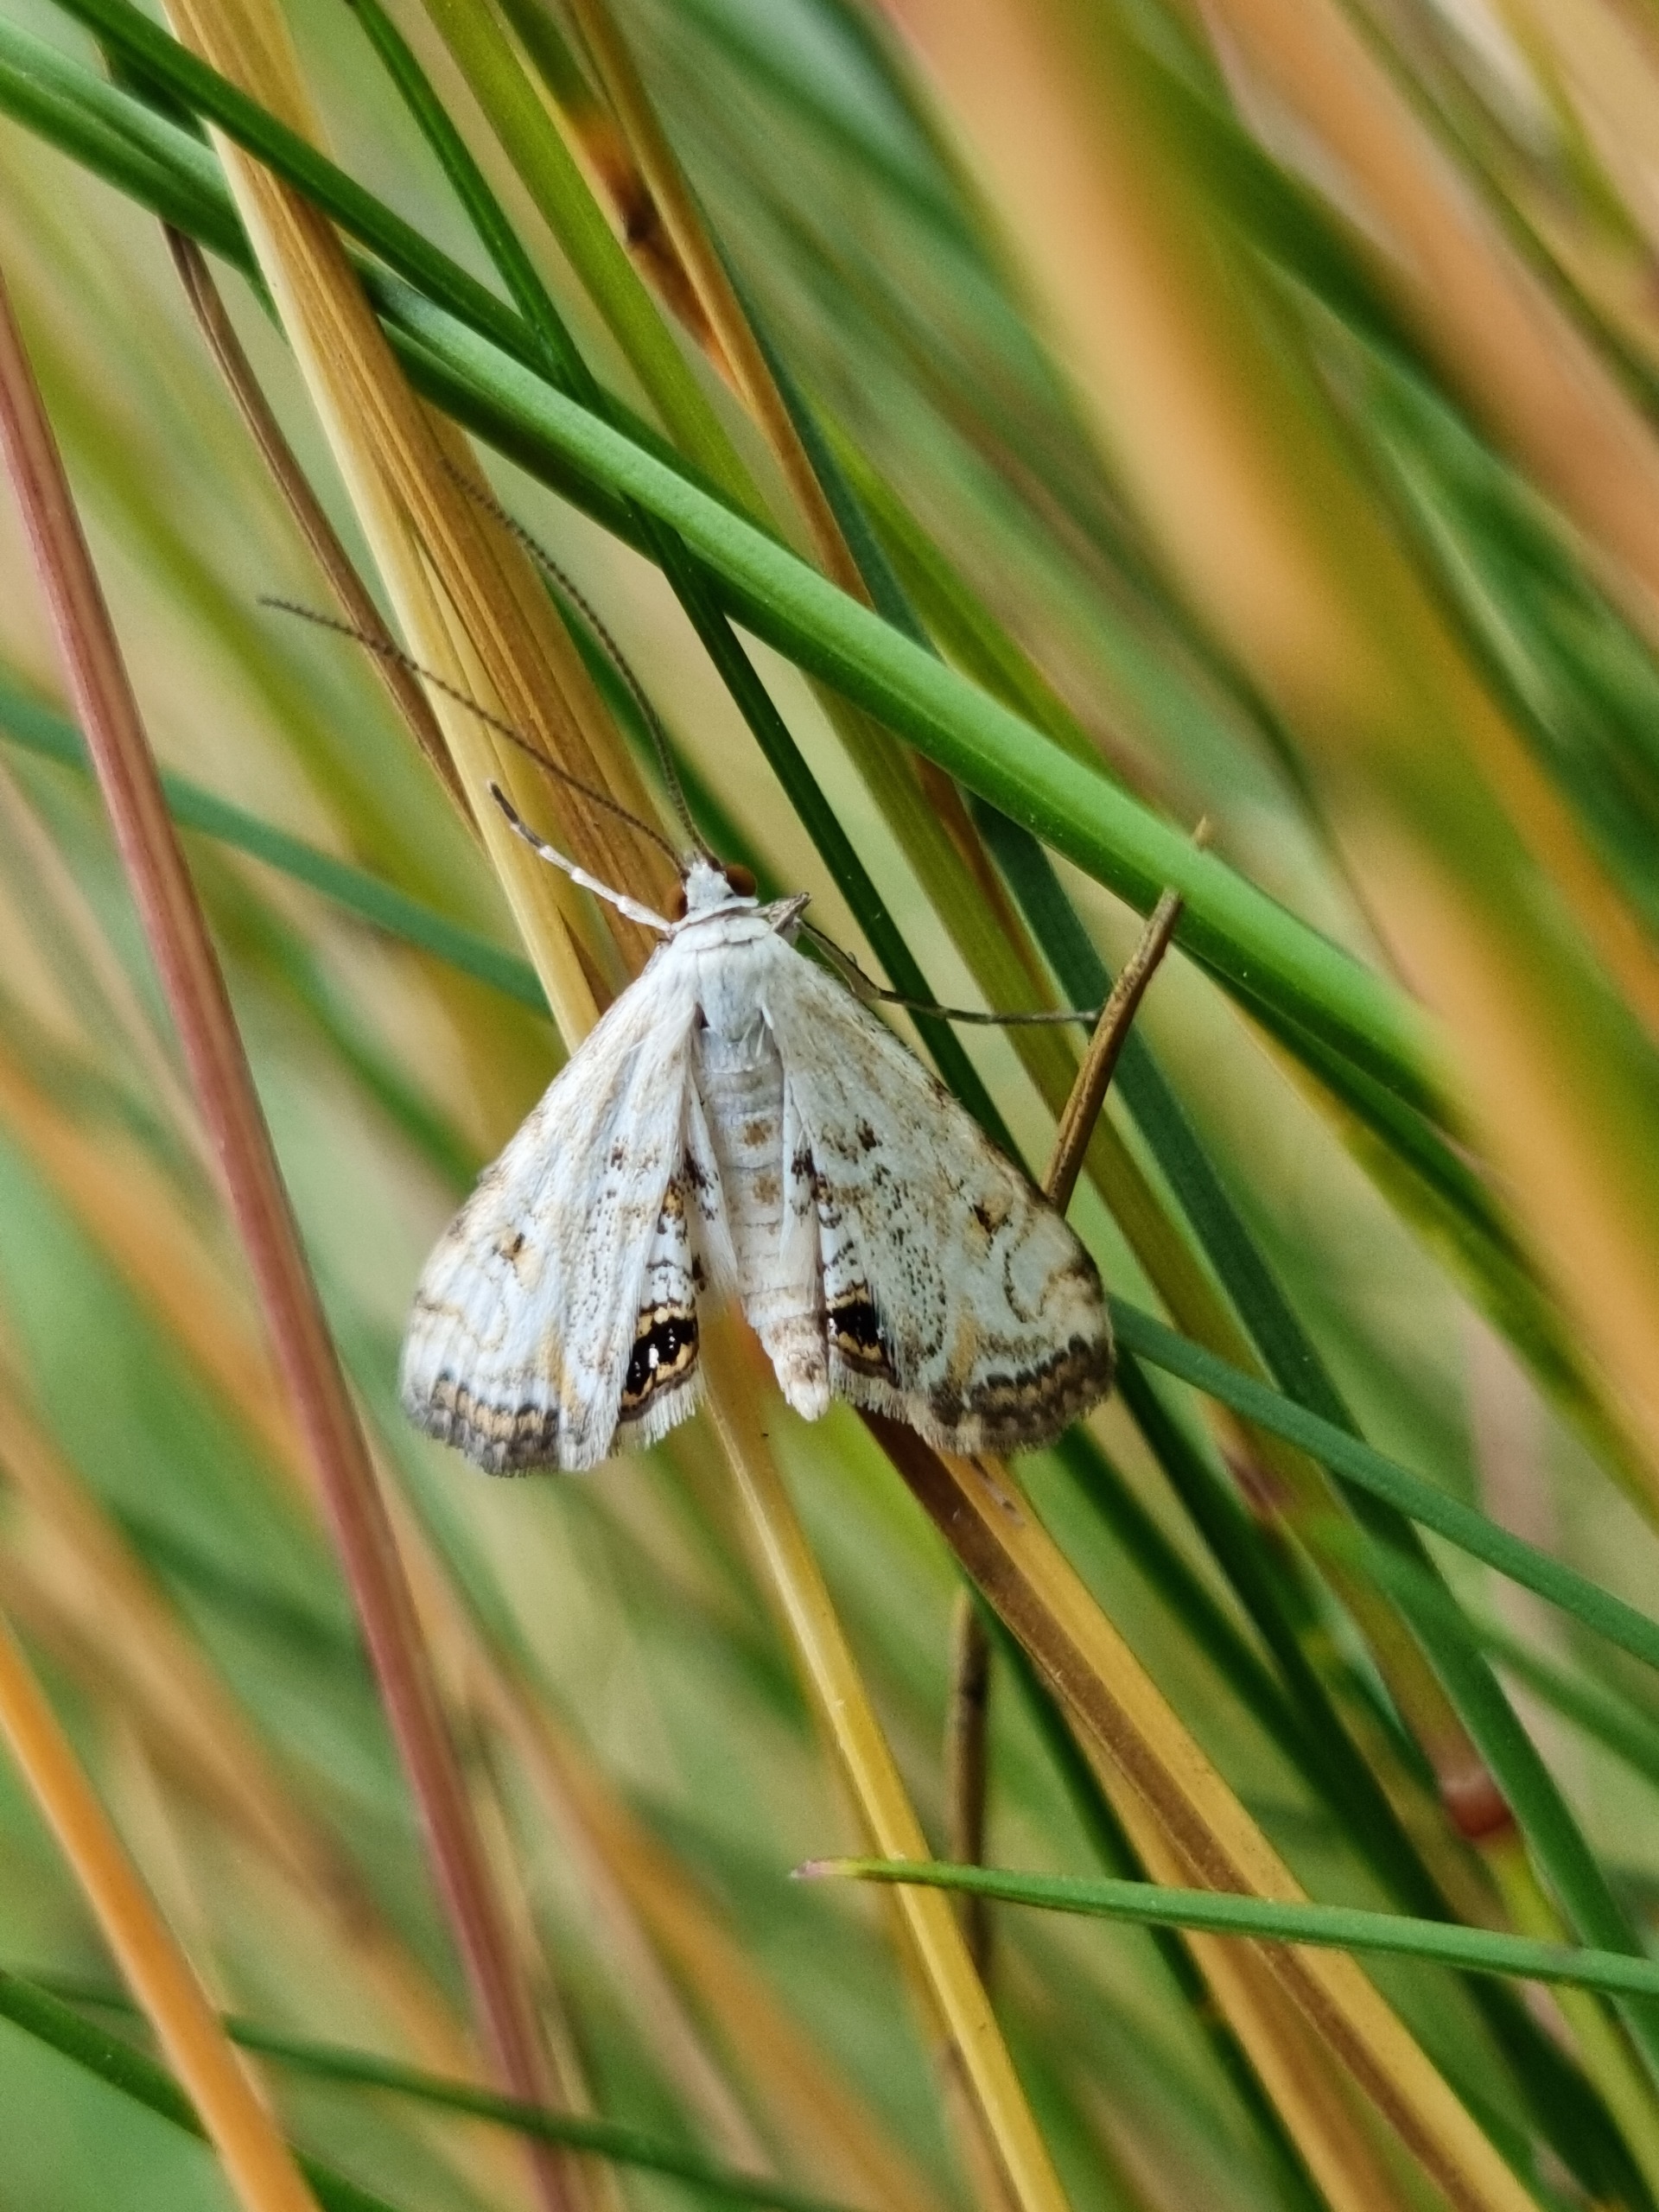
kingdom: Animalia
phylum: Arthropoda
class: Insecta
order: Lepidoptera
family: Crambidae
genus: Cataclysta
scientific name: Cataclysta lemnata
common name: Andemadhalvmøl
